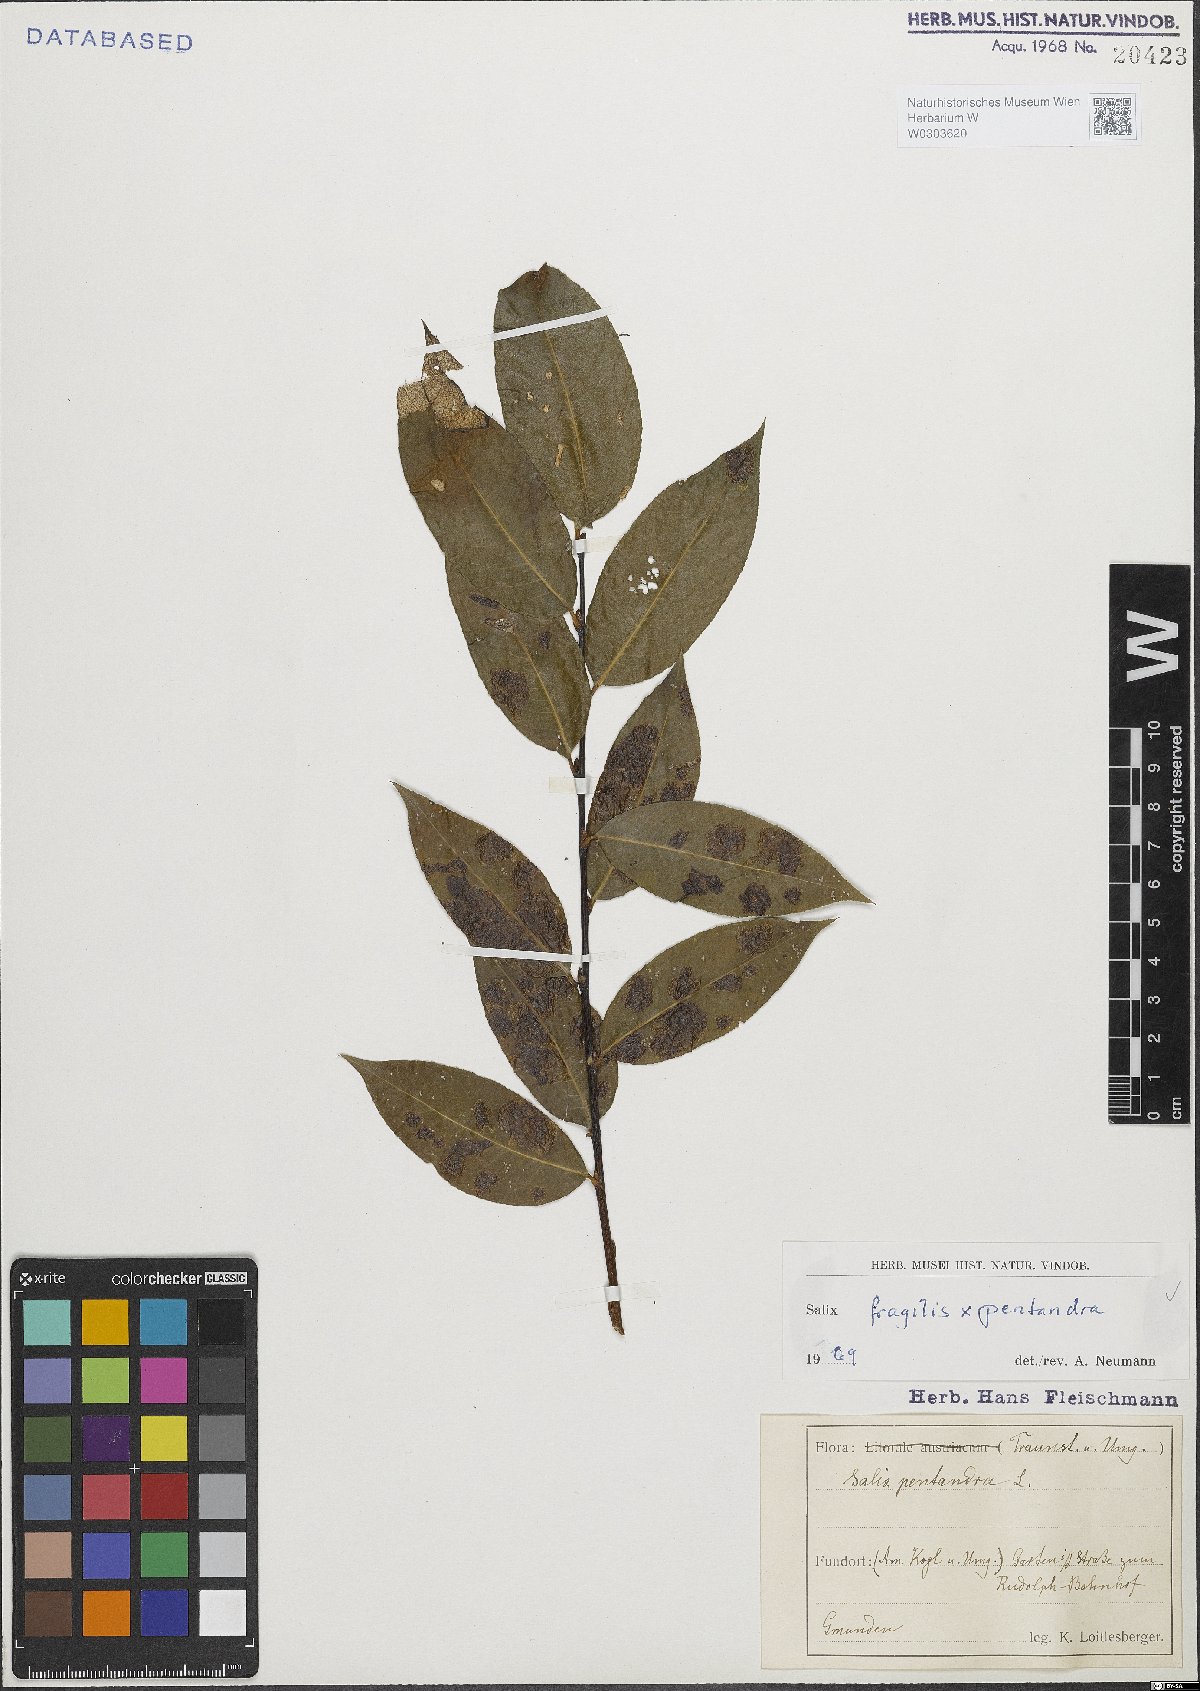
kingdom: Plantae
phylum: Tracheophyta
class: Magnoliopsida
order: Malpighiales
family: Salicaceae
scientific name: Salicaceae
